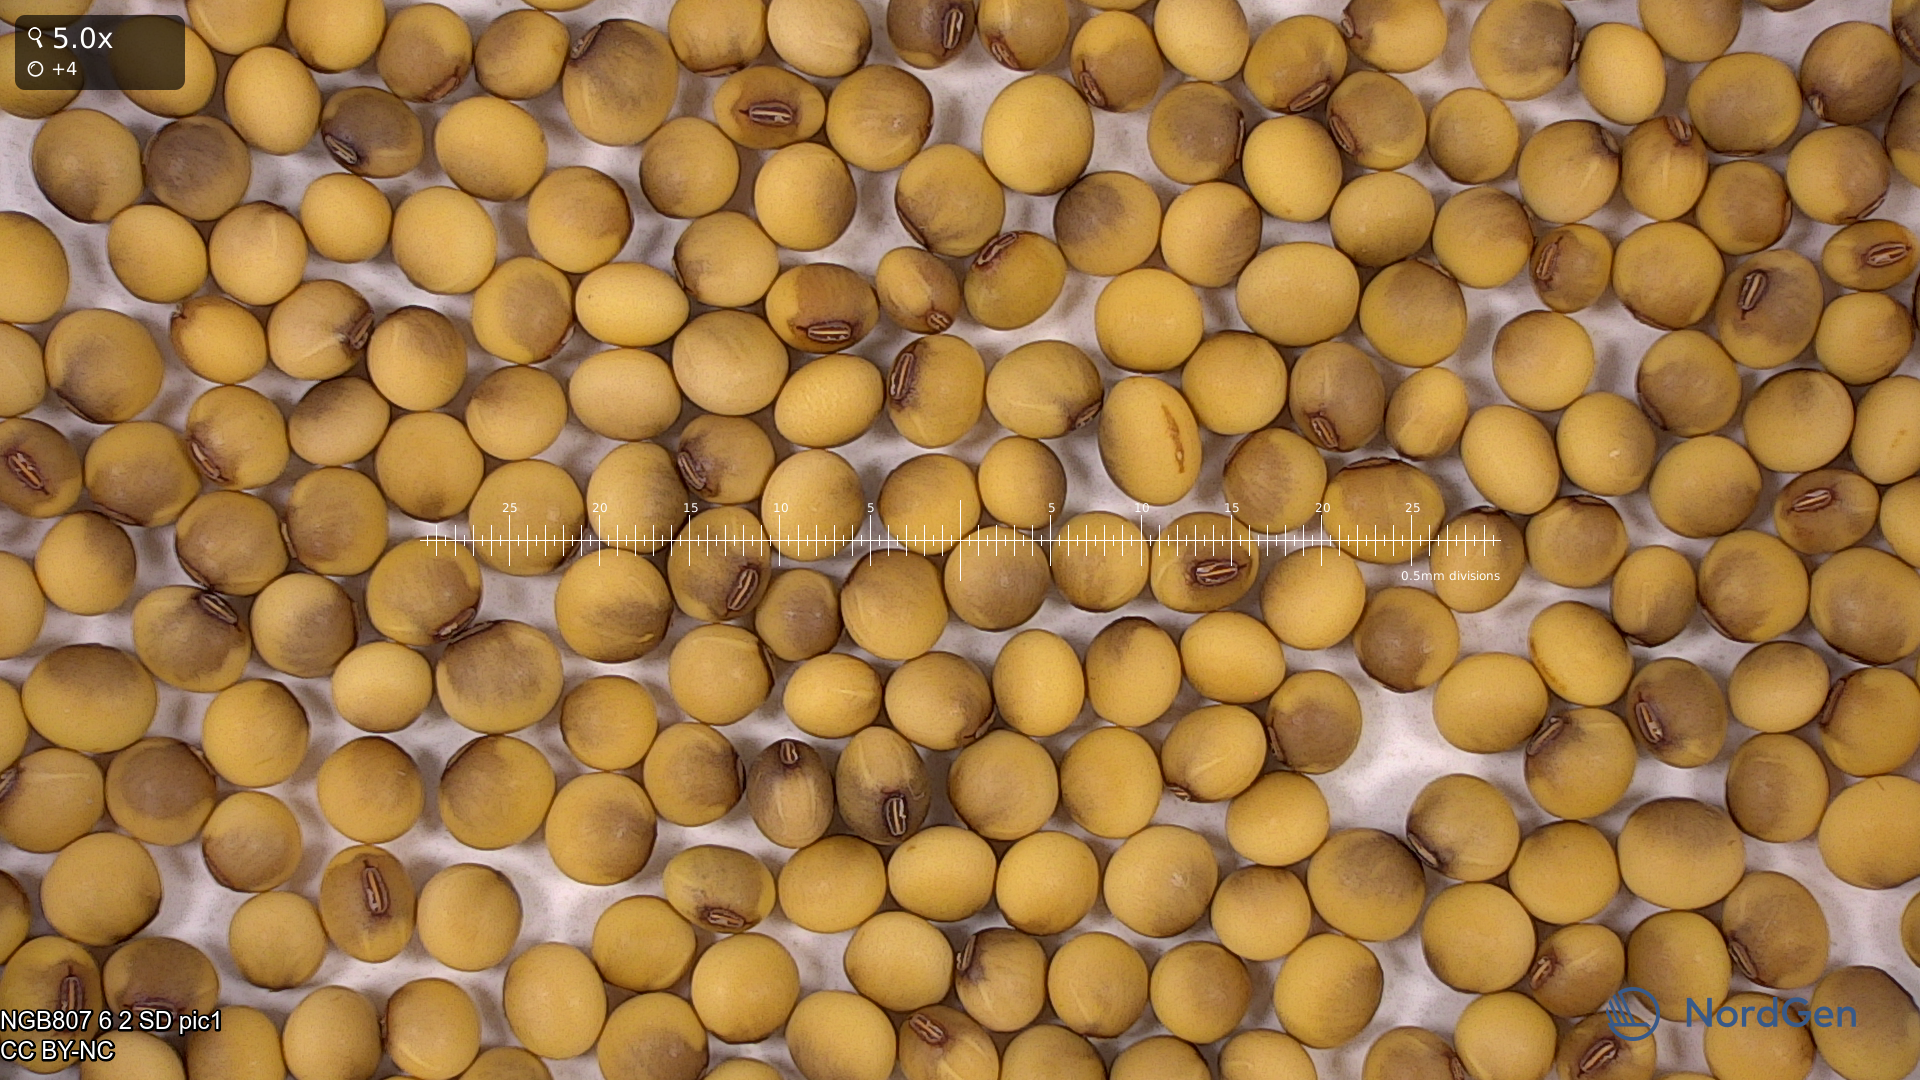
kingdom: Plantae
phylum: Tracheophyta
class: Magnoliopsida
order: Fabales
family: Fabaceae
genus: Glycine
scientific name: Glycine max
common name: Soya-bean
